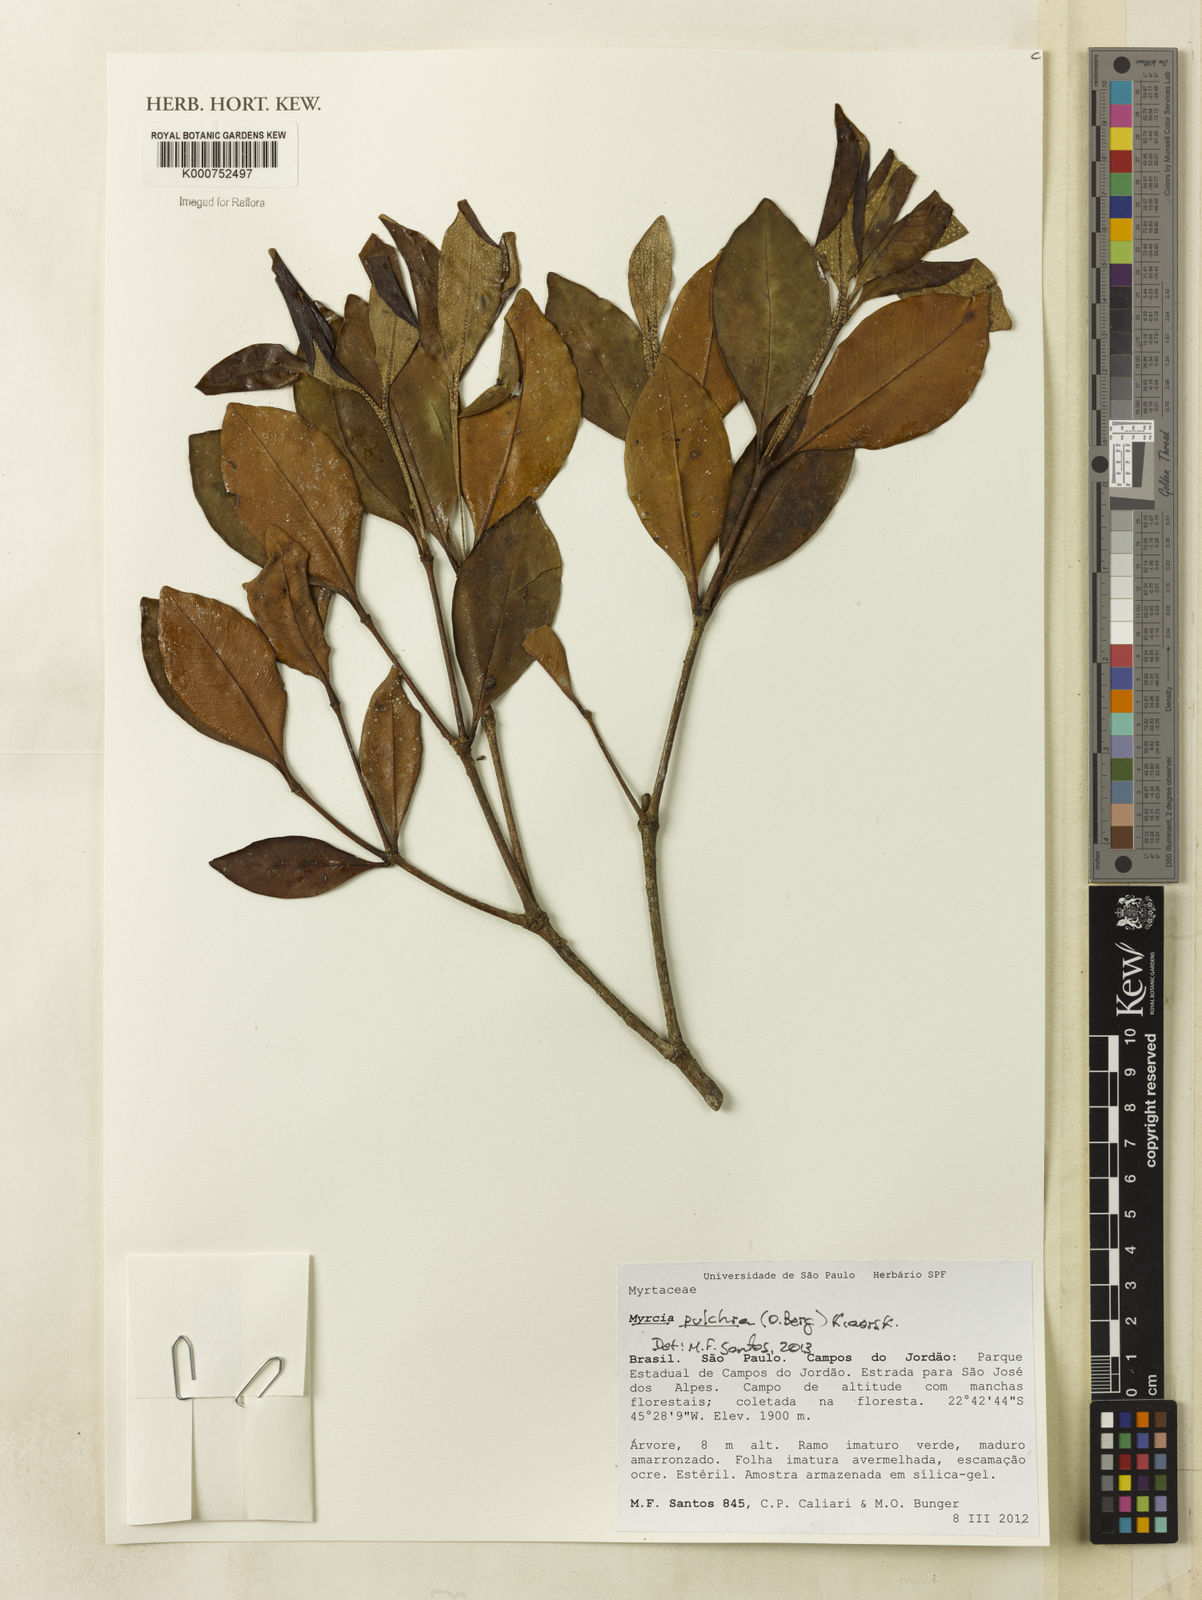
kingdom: Plantae
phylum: Tracheophyta
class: Magnoliopsida
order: Myrtales
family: Myrtaceae
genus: Myrcia
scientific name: Myrcia pulchra
